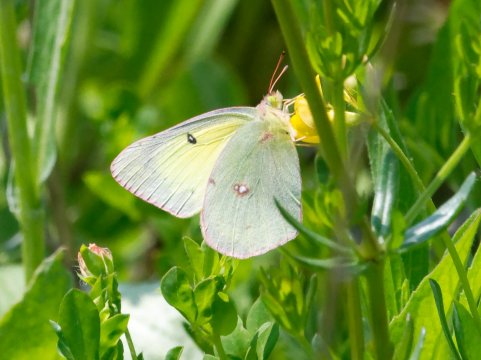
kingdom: Animalia
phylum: Arthropoda
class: Insecta
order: Lepidoptera
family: Pieridae
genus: Colias
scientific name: Colias philodice
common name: Clouded Sulphur
